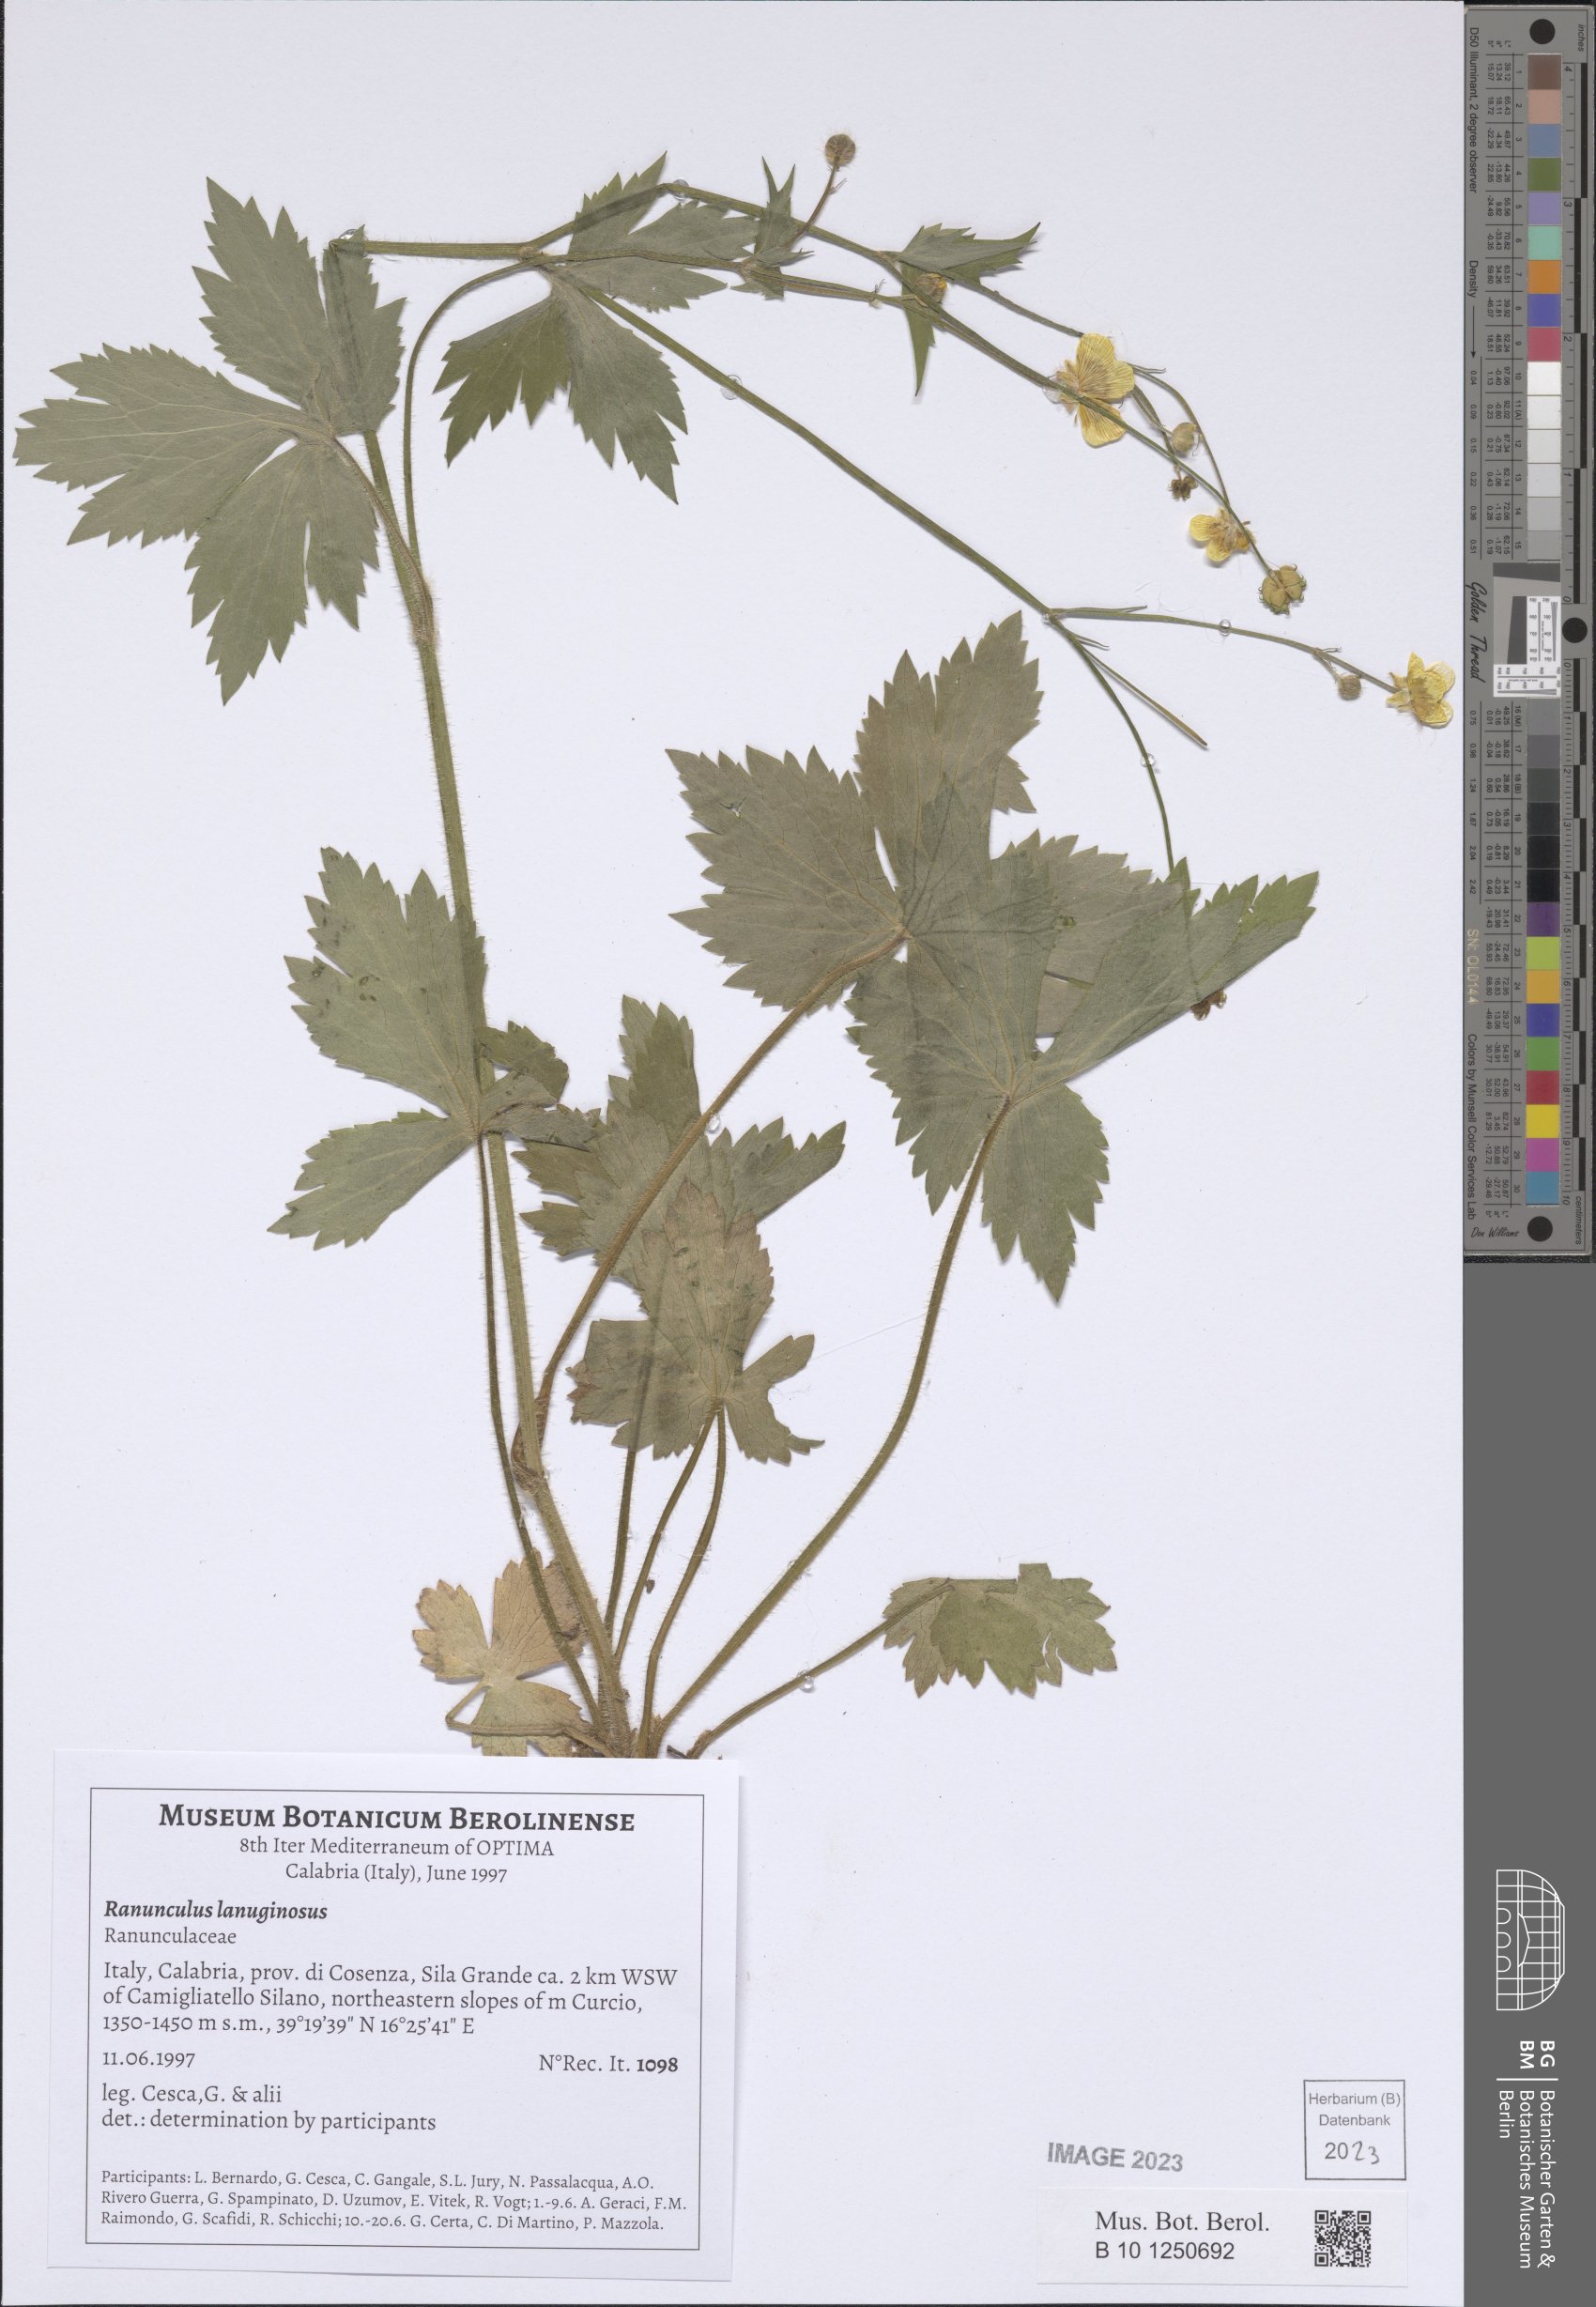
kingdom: Plantae
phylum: Tracheophyta
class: Magnoliopsida
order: Ranunculales
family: Ranunculaceae
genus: Ranunculus
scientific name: Ranunculus lanuginosus
